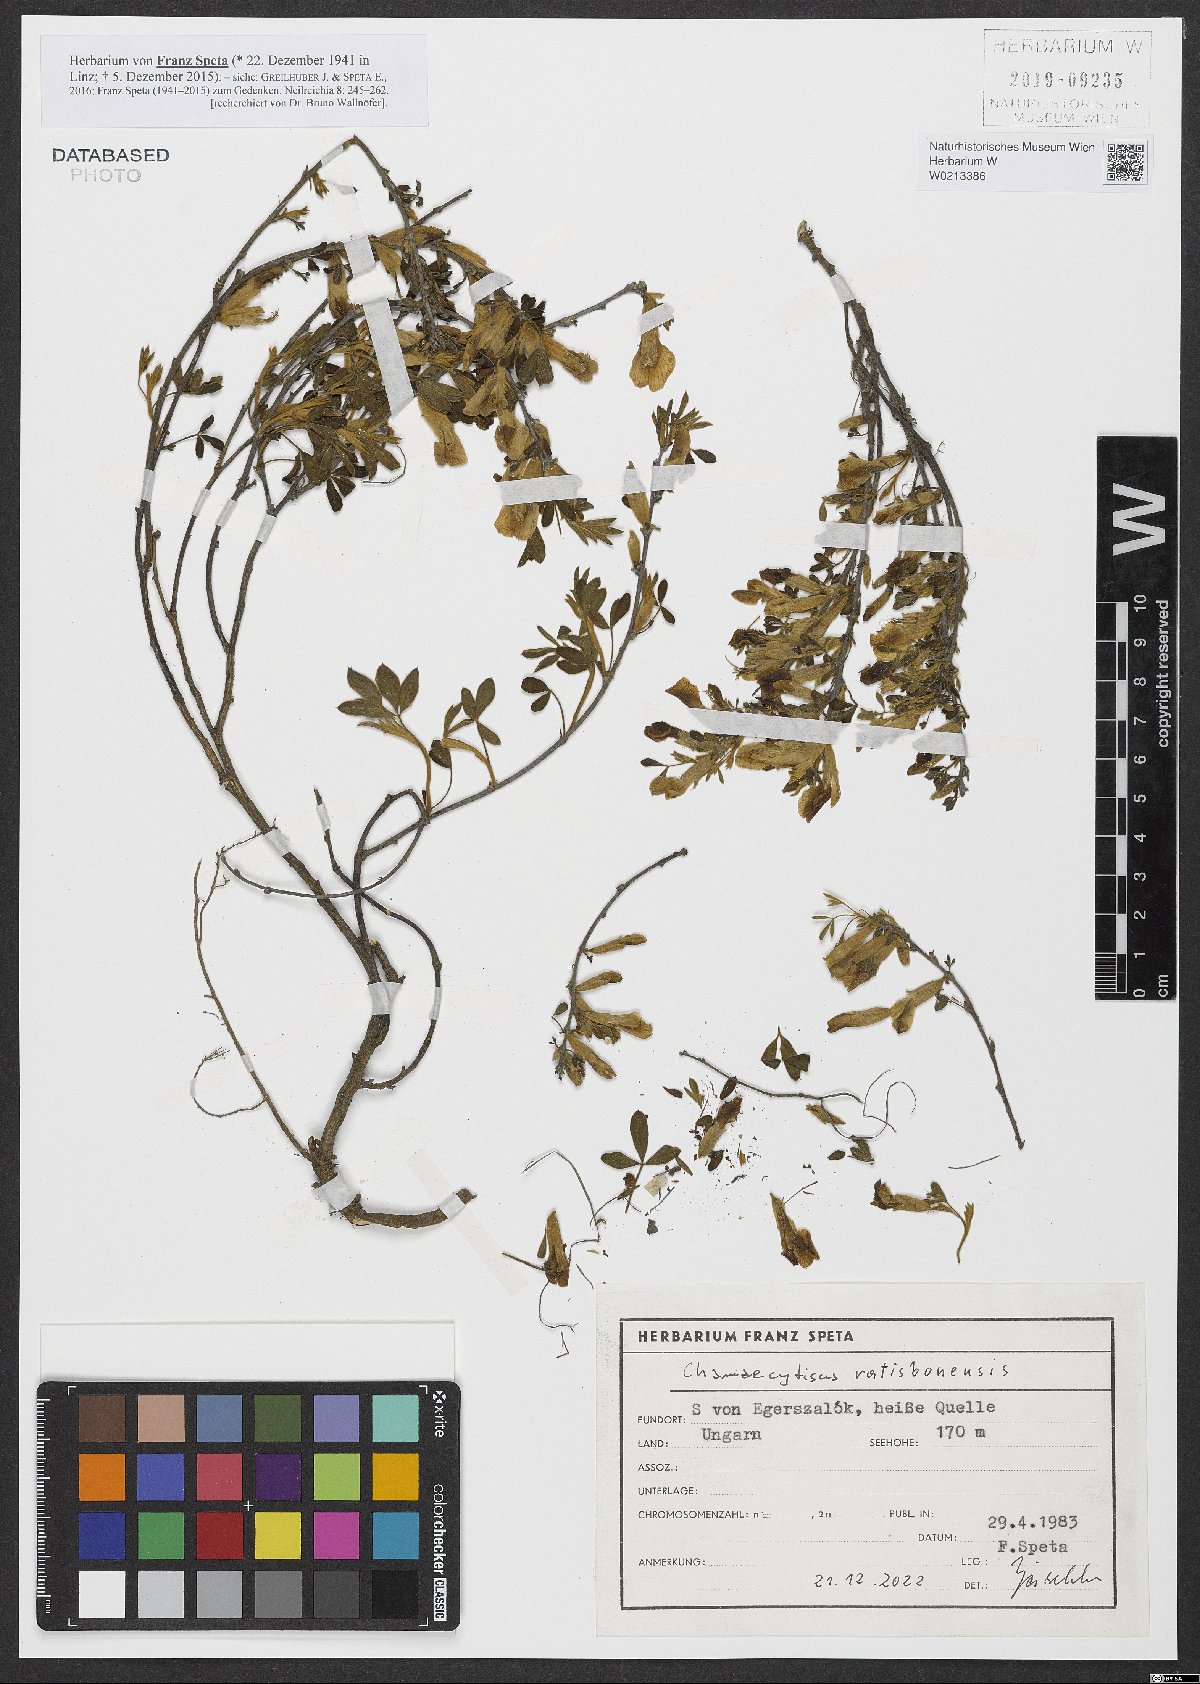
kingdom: Plantae
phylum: Tracheophyta
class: Magnoliopsida
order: Fabales
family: Fabaceae
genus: Chamaecytisus
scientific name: Chamaecytisus ratisbonensis
